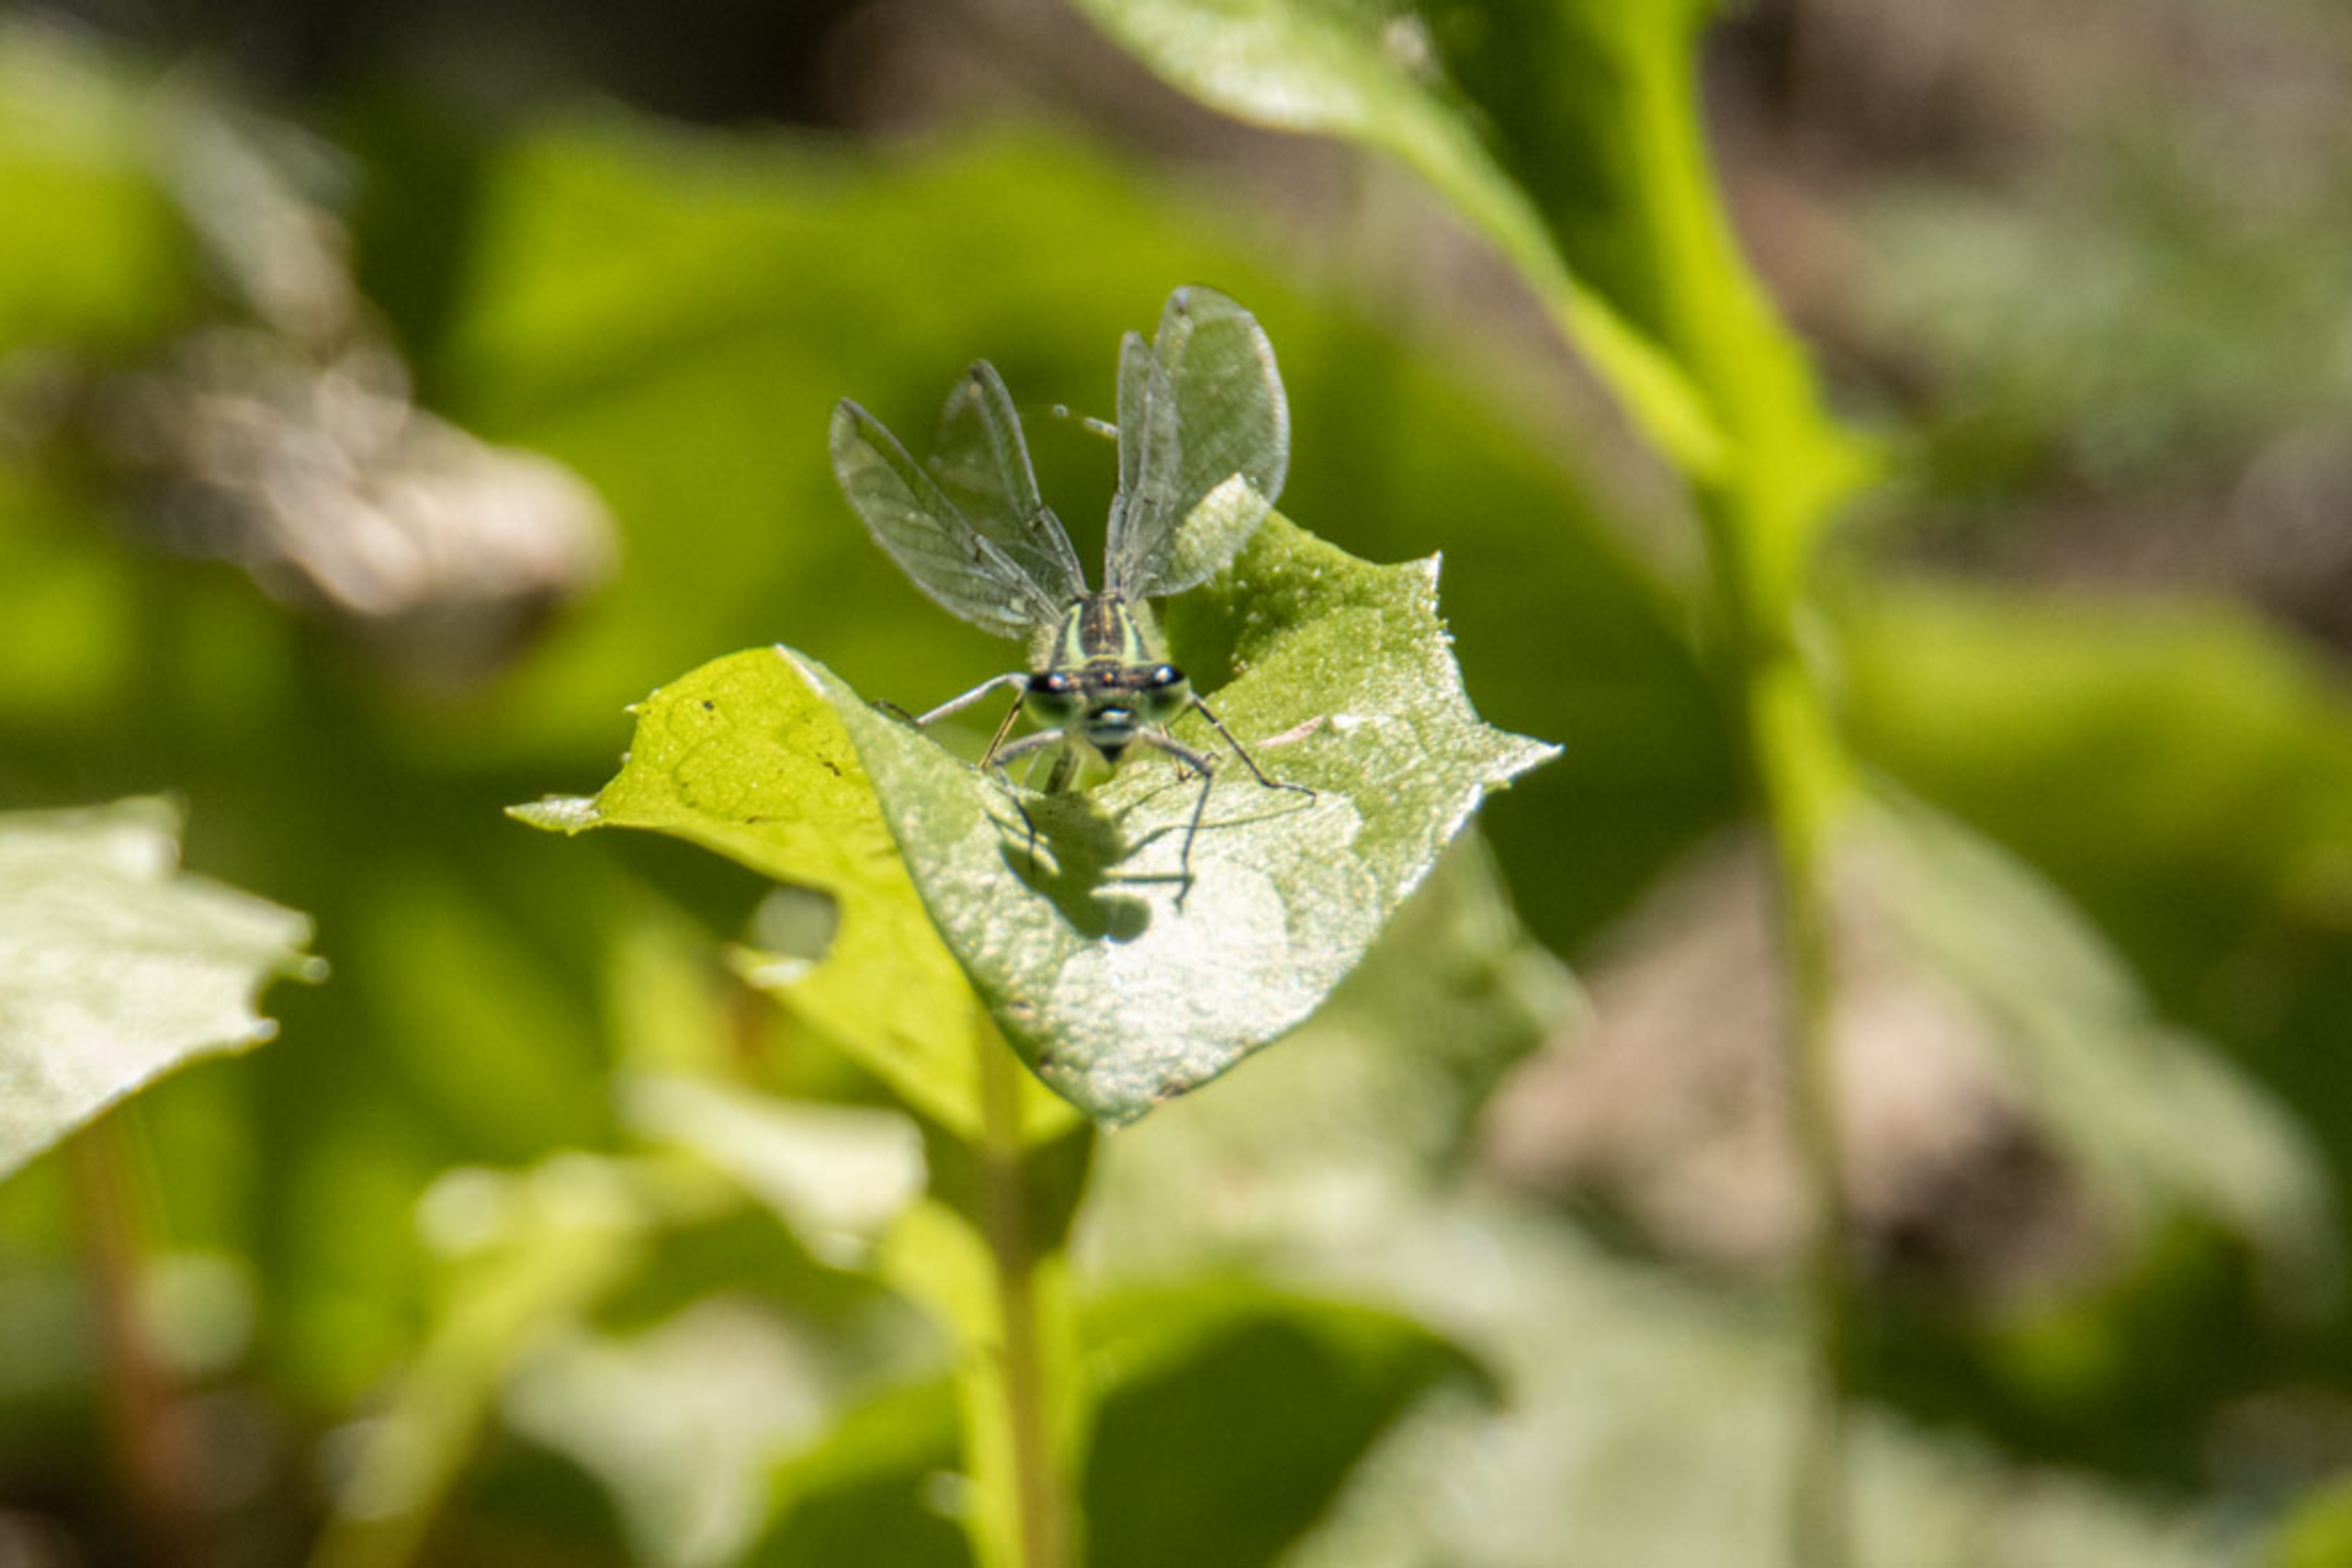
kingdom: Animalia
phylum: Arthropoda
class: Insecta
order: Odonata
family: Coenagrionidae
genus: Coenagrion
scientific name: Coenagrion puella
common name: Hestesko-vandnymfe
